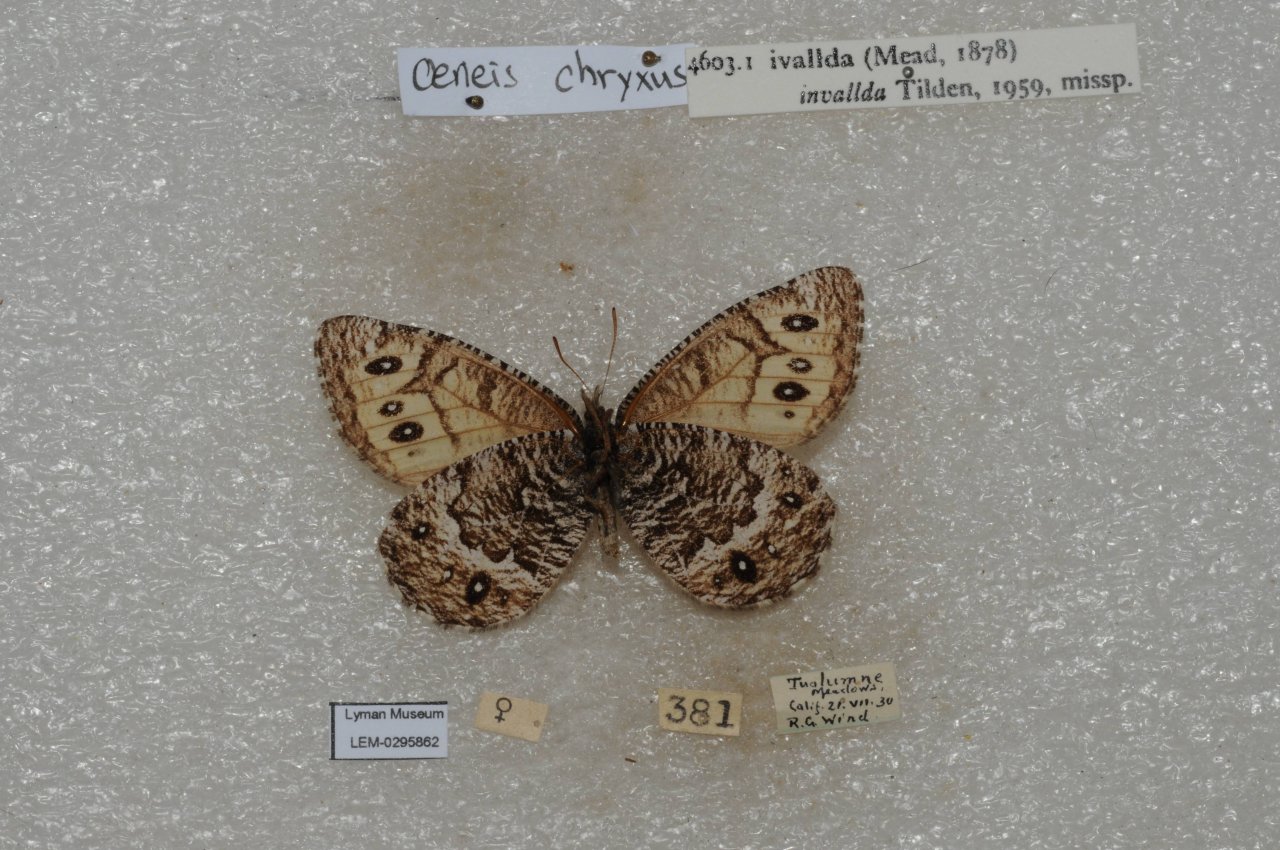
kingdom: Animalia
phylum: Arthropoda
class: Insecta
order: Lepidoptera
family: Nymphalidae
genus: Oeneis
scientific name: Oeneis chryxus
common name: Chryxus Arctic
